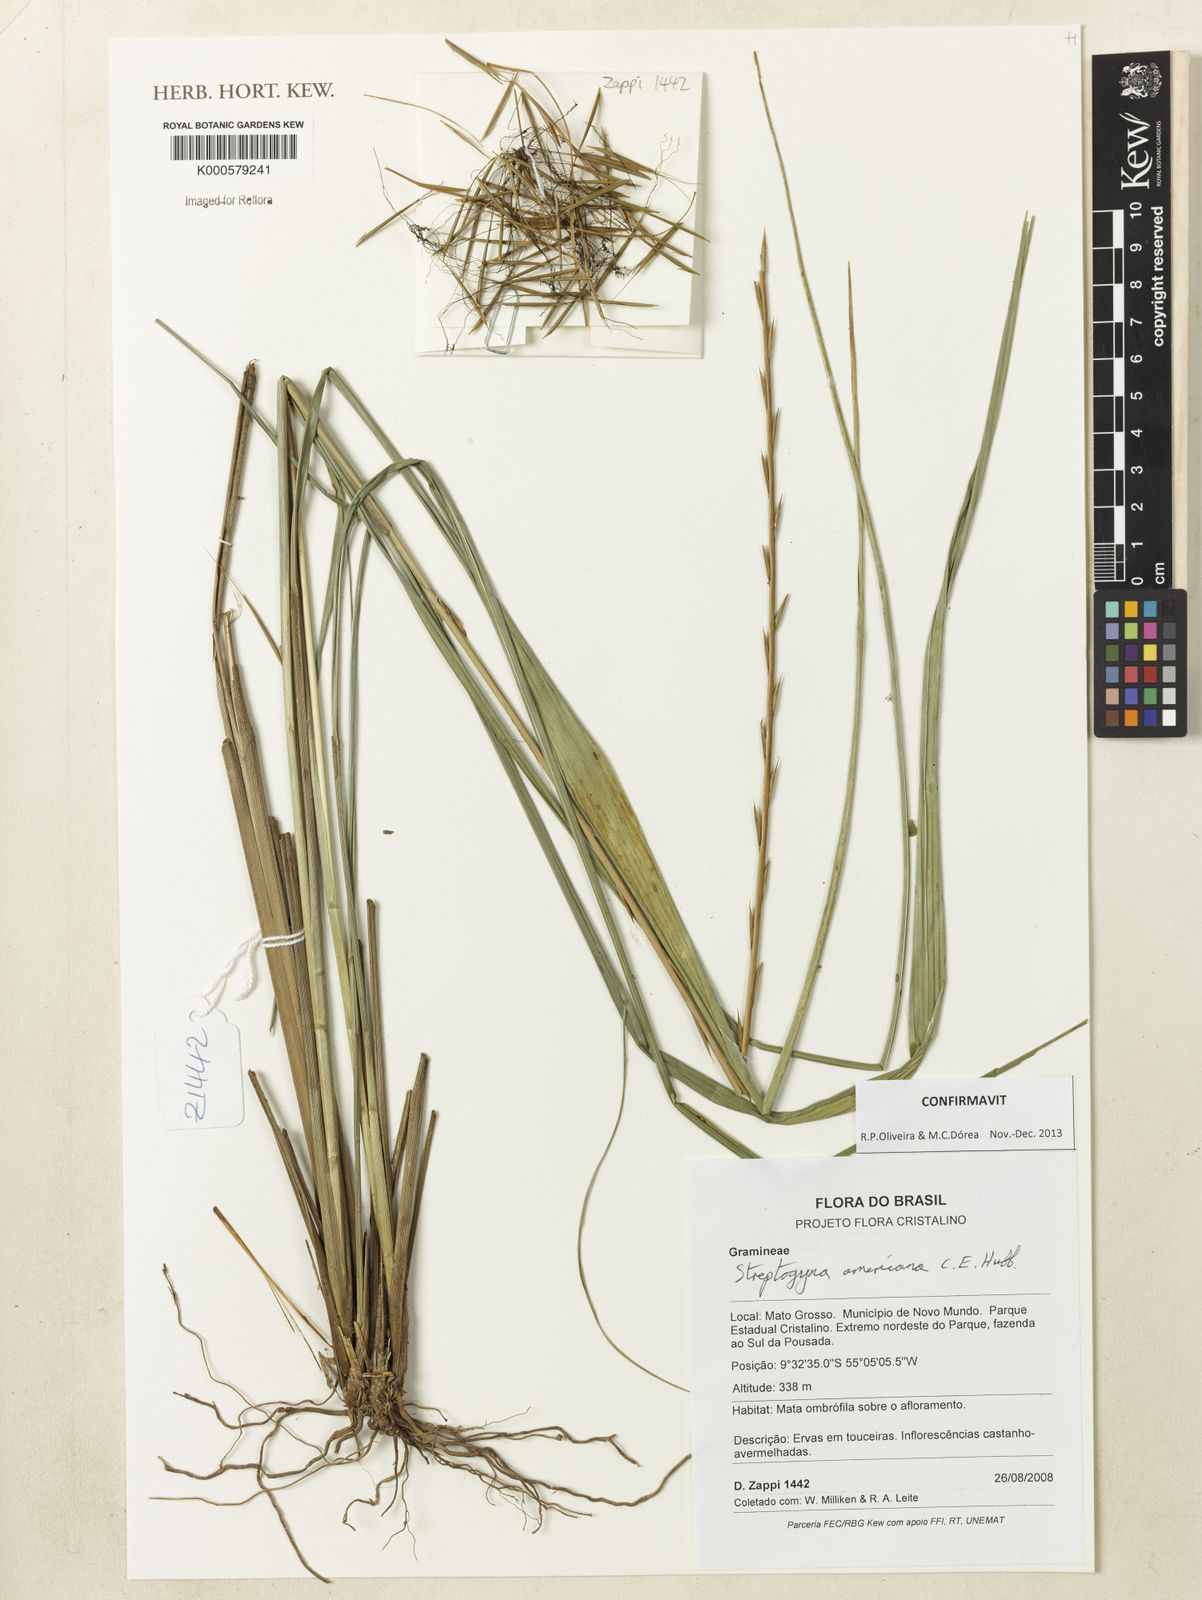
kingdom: Plantae
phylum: Tracheophyta
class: Liliopsida
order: Poales
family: Poaceae
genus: Streptogyna
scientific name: Streptogyna americana
